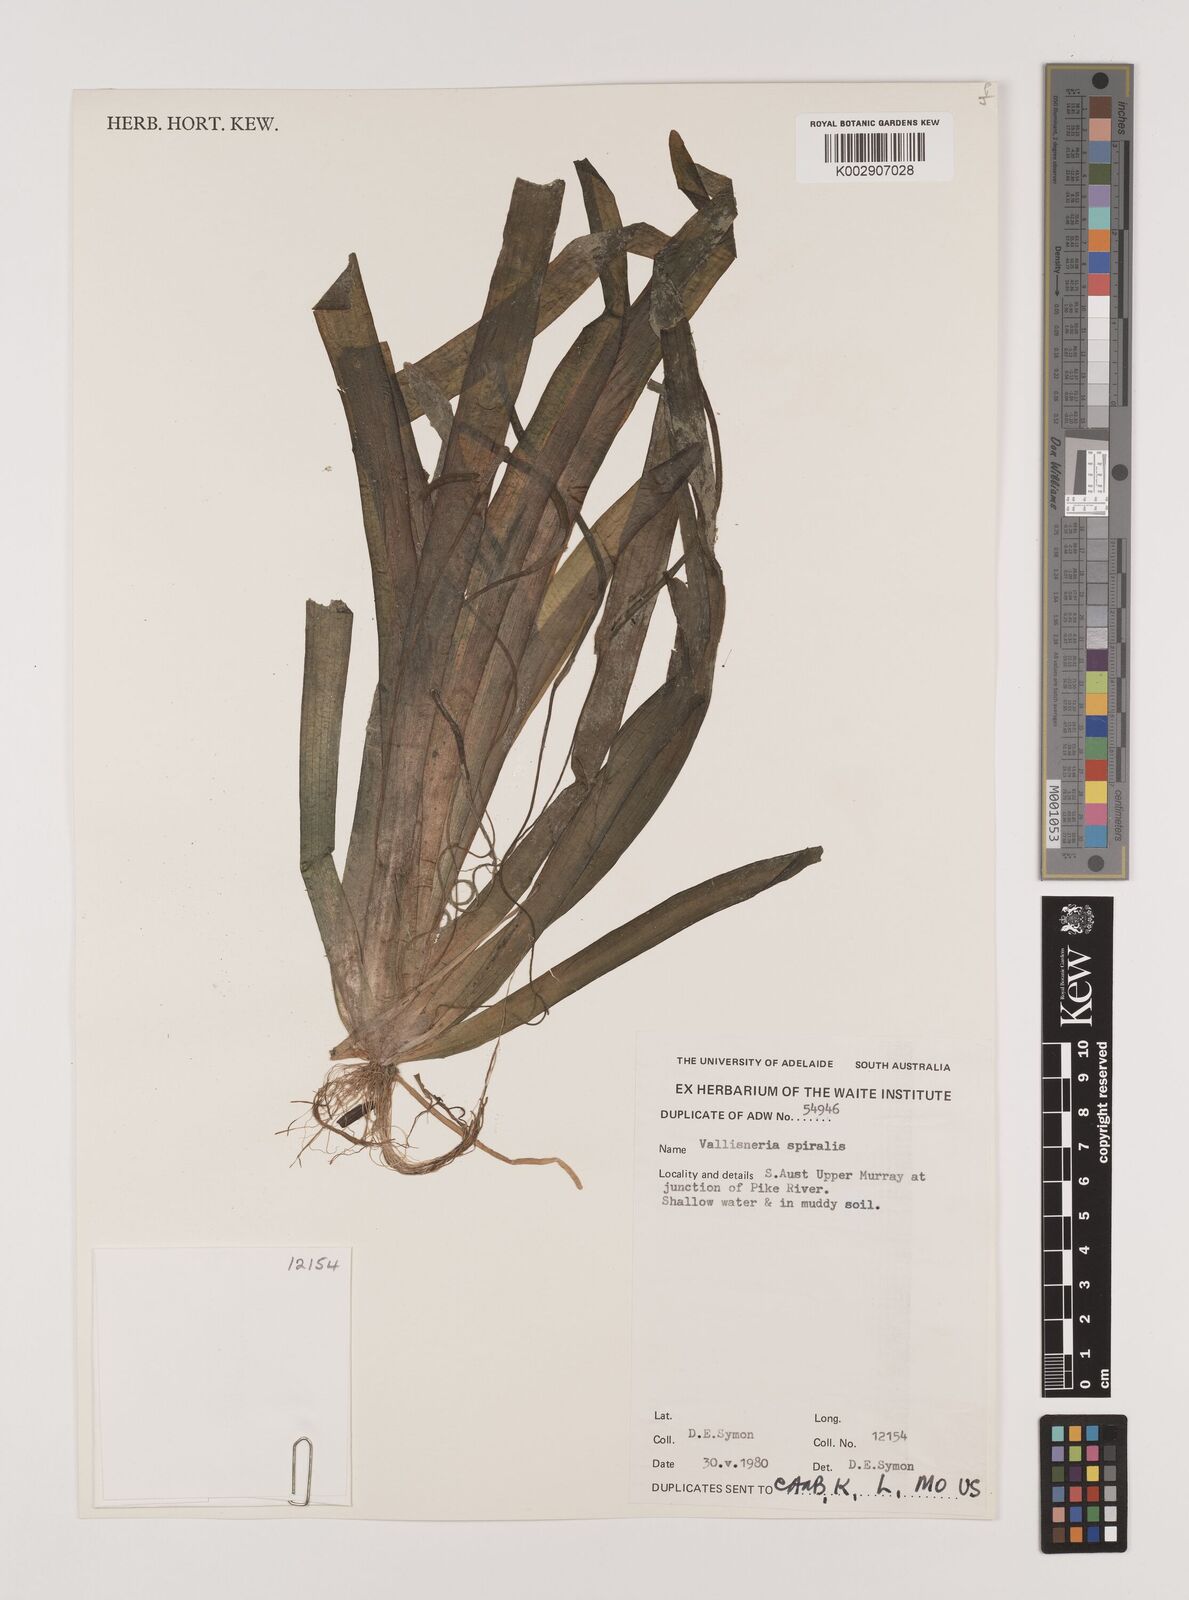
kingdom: Plantae
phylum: Tracheophyta
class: Liliopsida
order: Alismatales
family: Hydrocharitaceae
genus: Vallisneria
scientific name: Vallisneria spiralis
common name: Tapegrass
